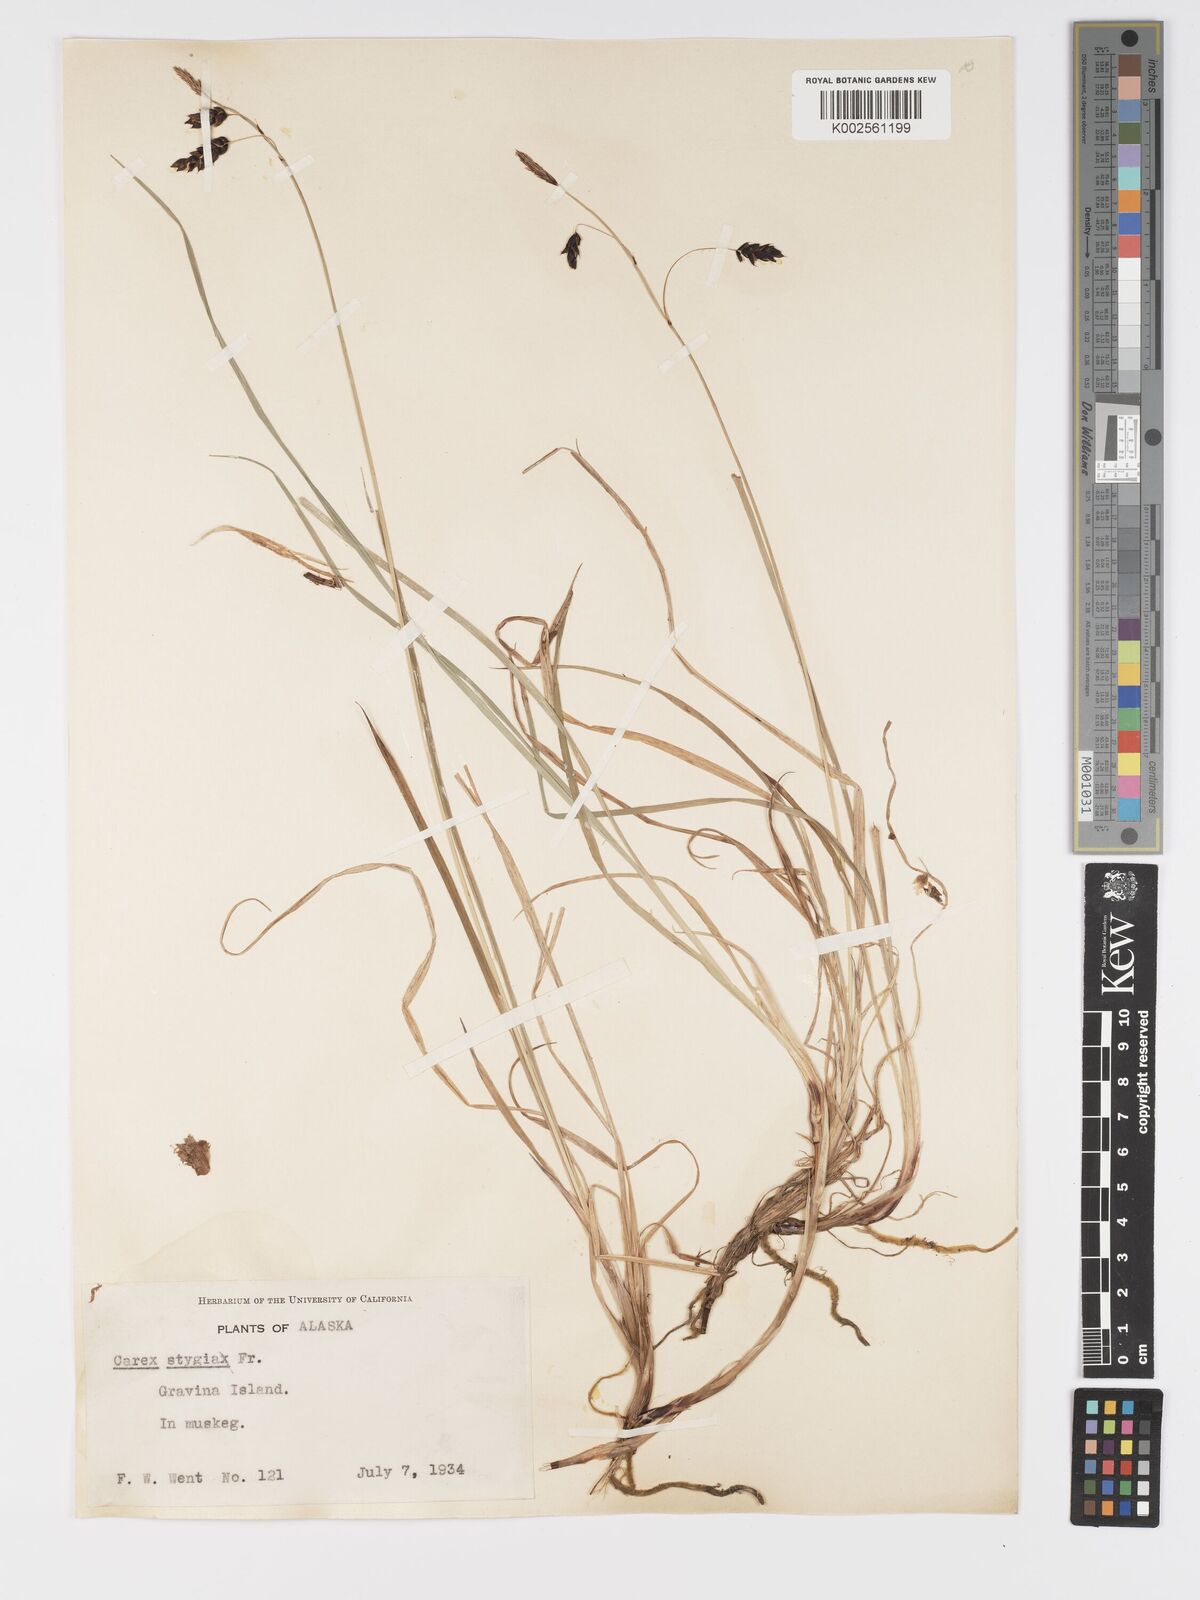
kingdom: Plantae
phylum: Tracheophyta
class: Liliopsida
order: Poales
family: Cyperaceae
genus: Carex
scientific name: Carex stygia
